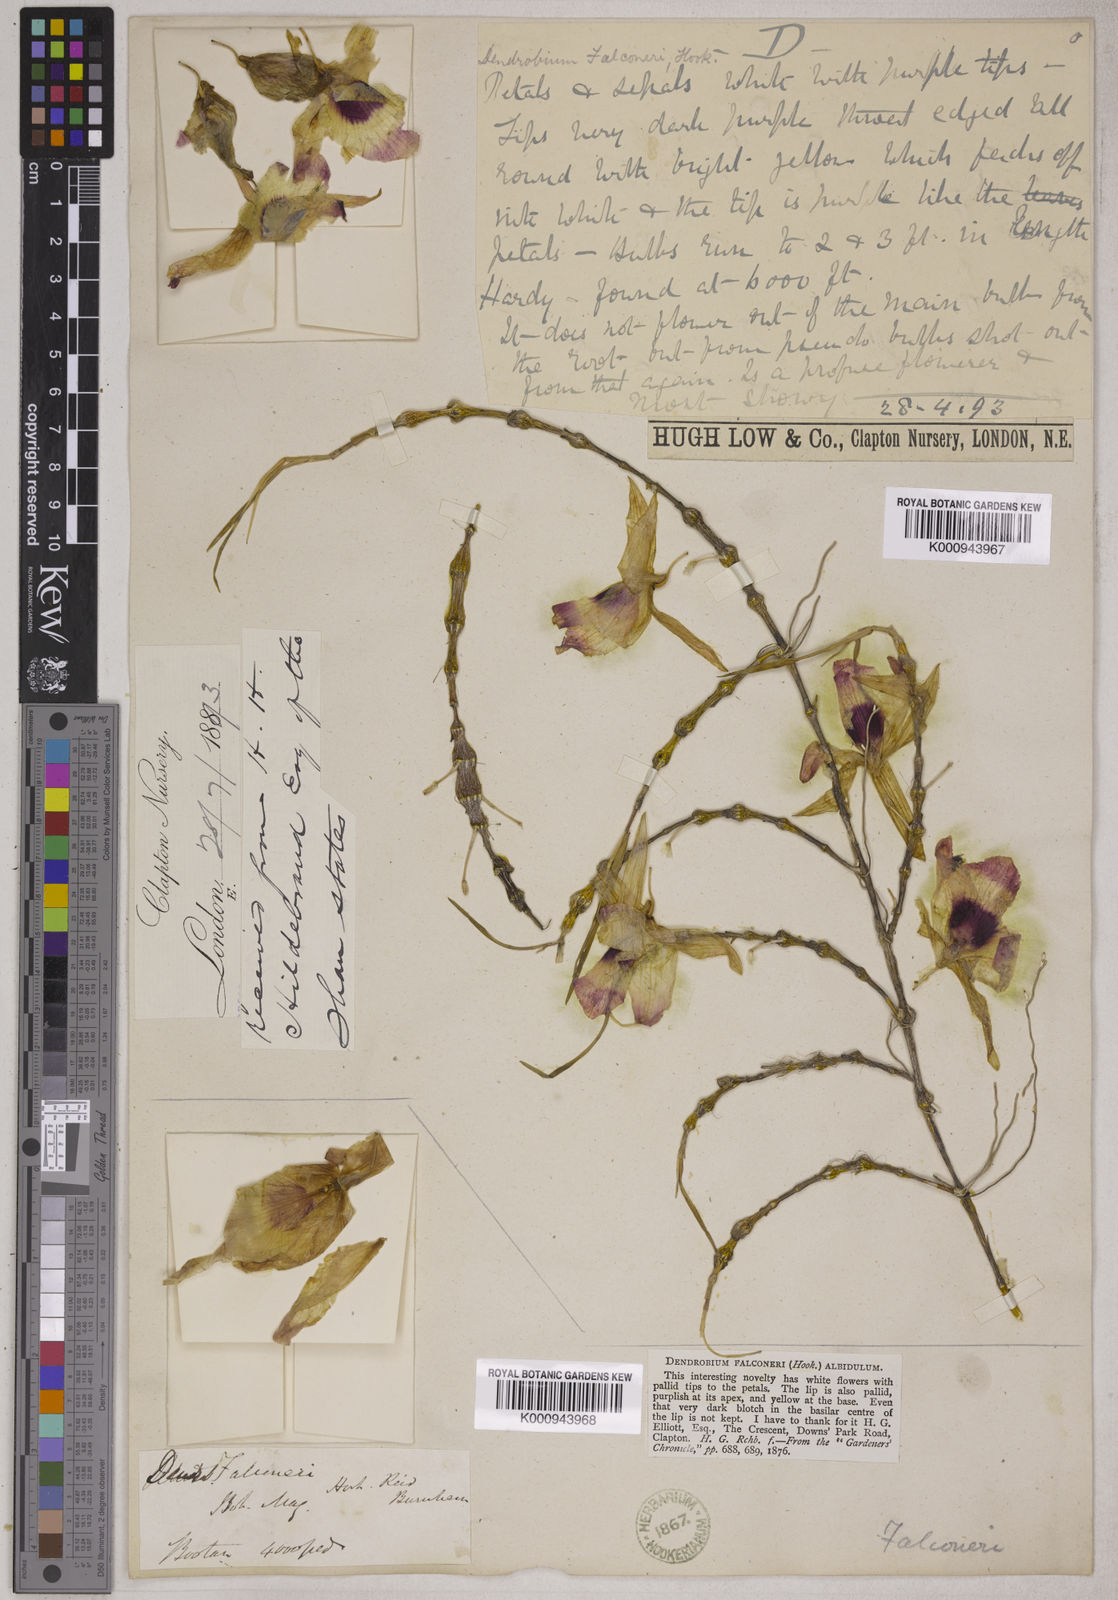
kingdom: Plantae
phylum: Tracheophyta
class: Liliopsida
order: Asparagales
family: Orchidaceae
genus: Dendrobium
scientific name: Dendrobium
